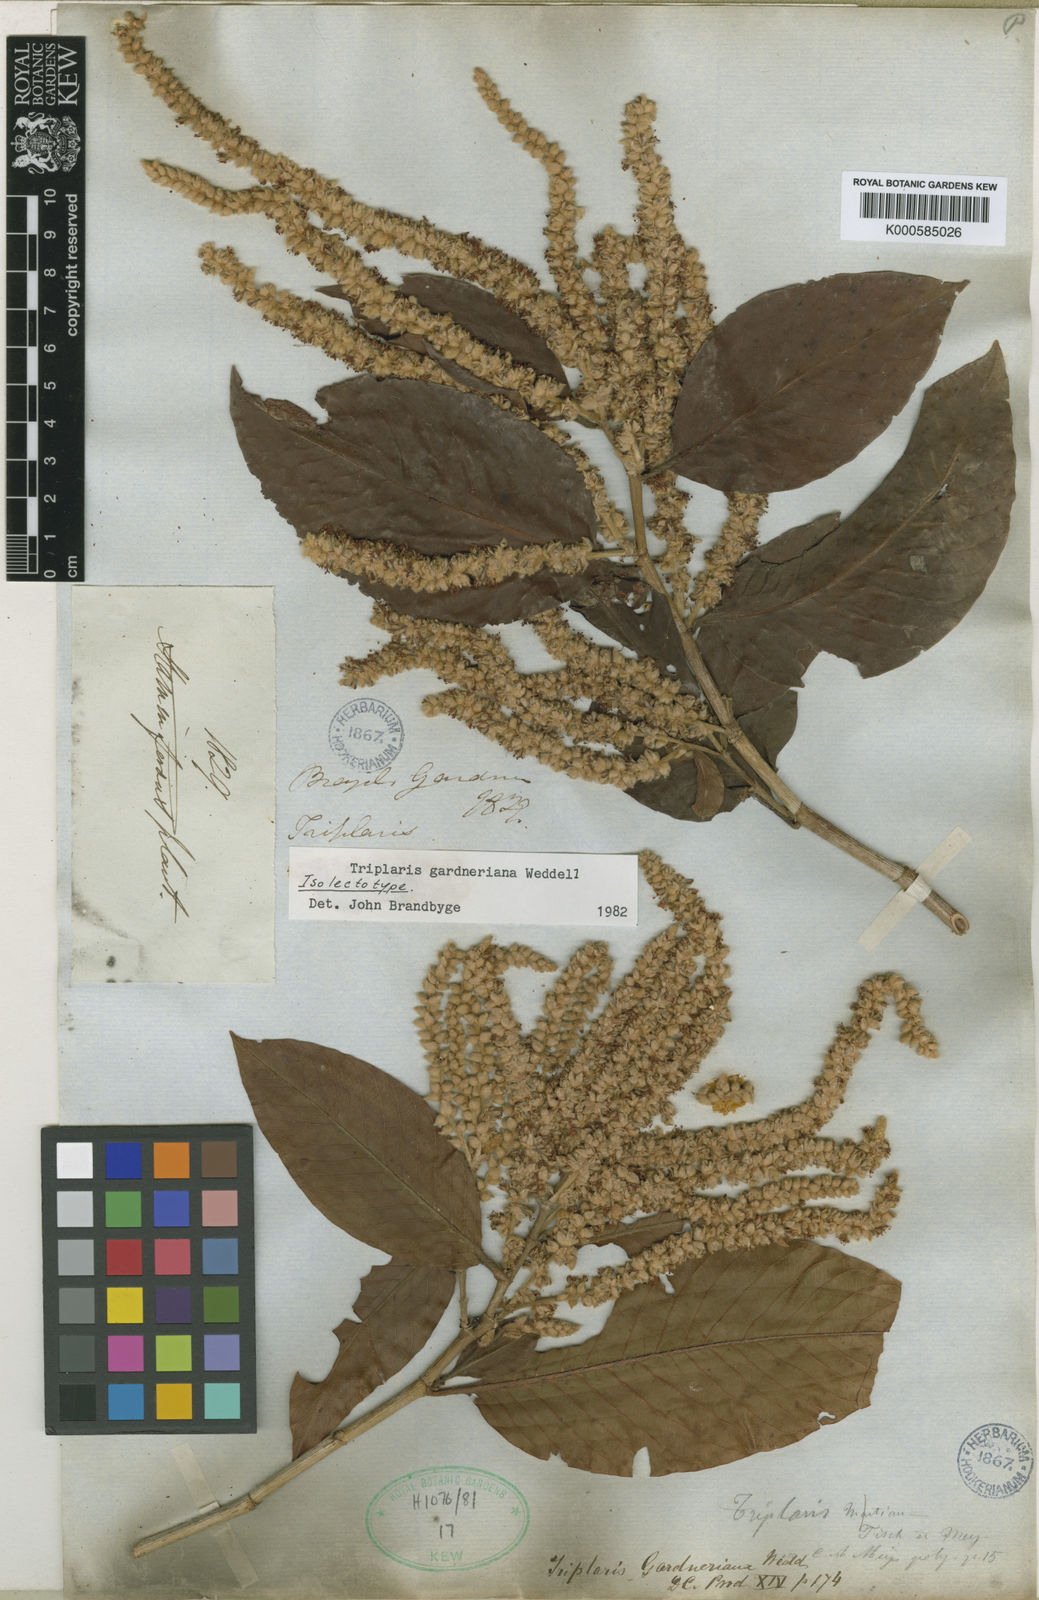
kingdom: Plantae
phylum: Tracheophyta
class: Magnoliopsida
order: Caryophyllales
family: Polygonaceae
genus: Triplaris
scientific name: Triplaris gardneriana
